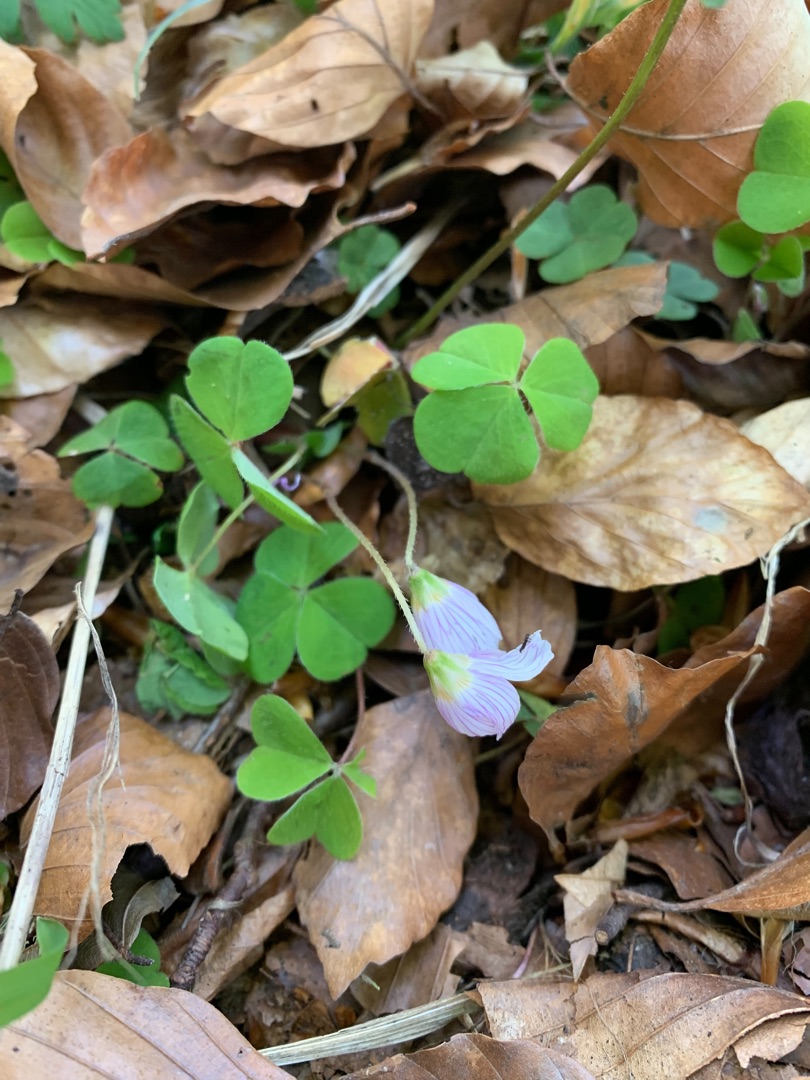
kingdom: Plantae
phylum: Tracheophyta
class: Magnoliopsida
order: Oxalidales
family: Oxalidaceae
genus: Oxalis
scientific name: Oxalis acetosella
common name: Skovsyre
